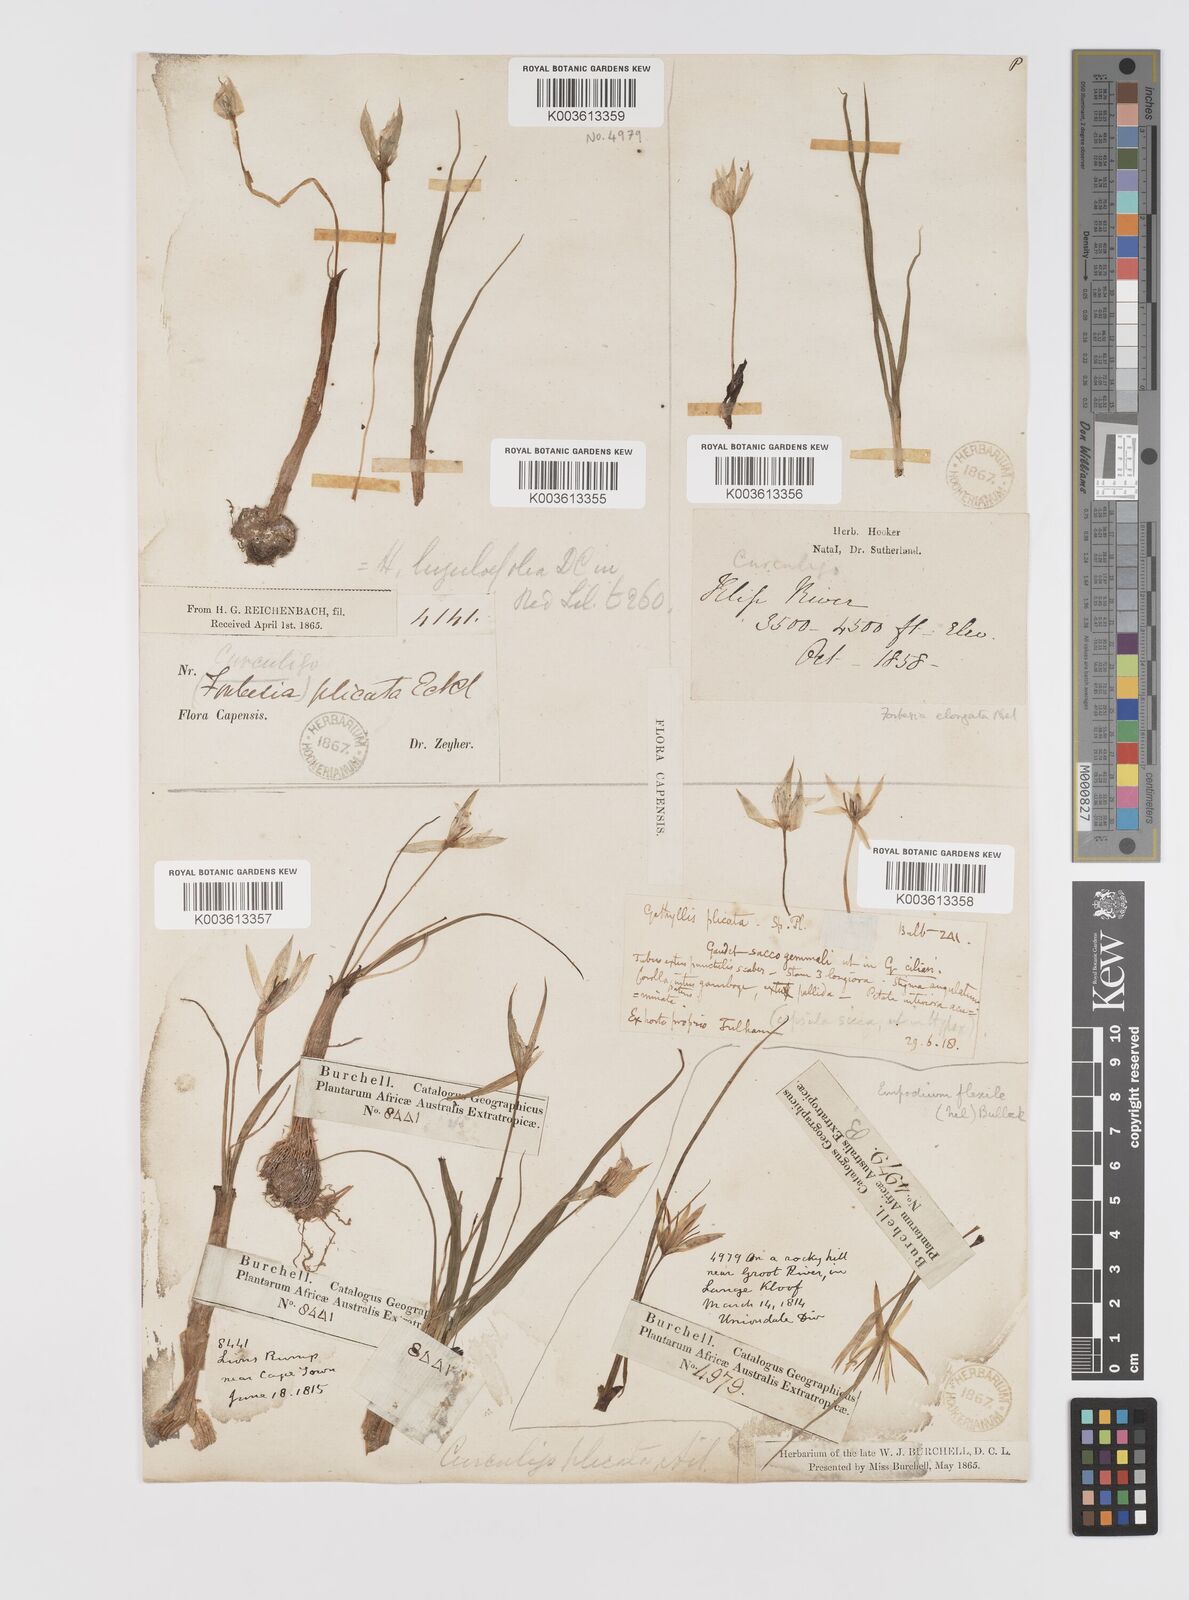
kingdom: Plantae
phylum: Tracheophyta
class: Liliopsida
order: Asparagales
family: Hypoxidaceae
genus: Empodium
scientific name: Empodium plicatum
